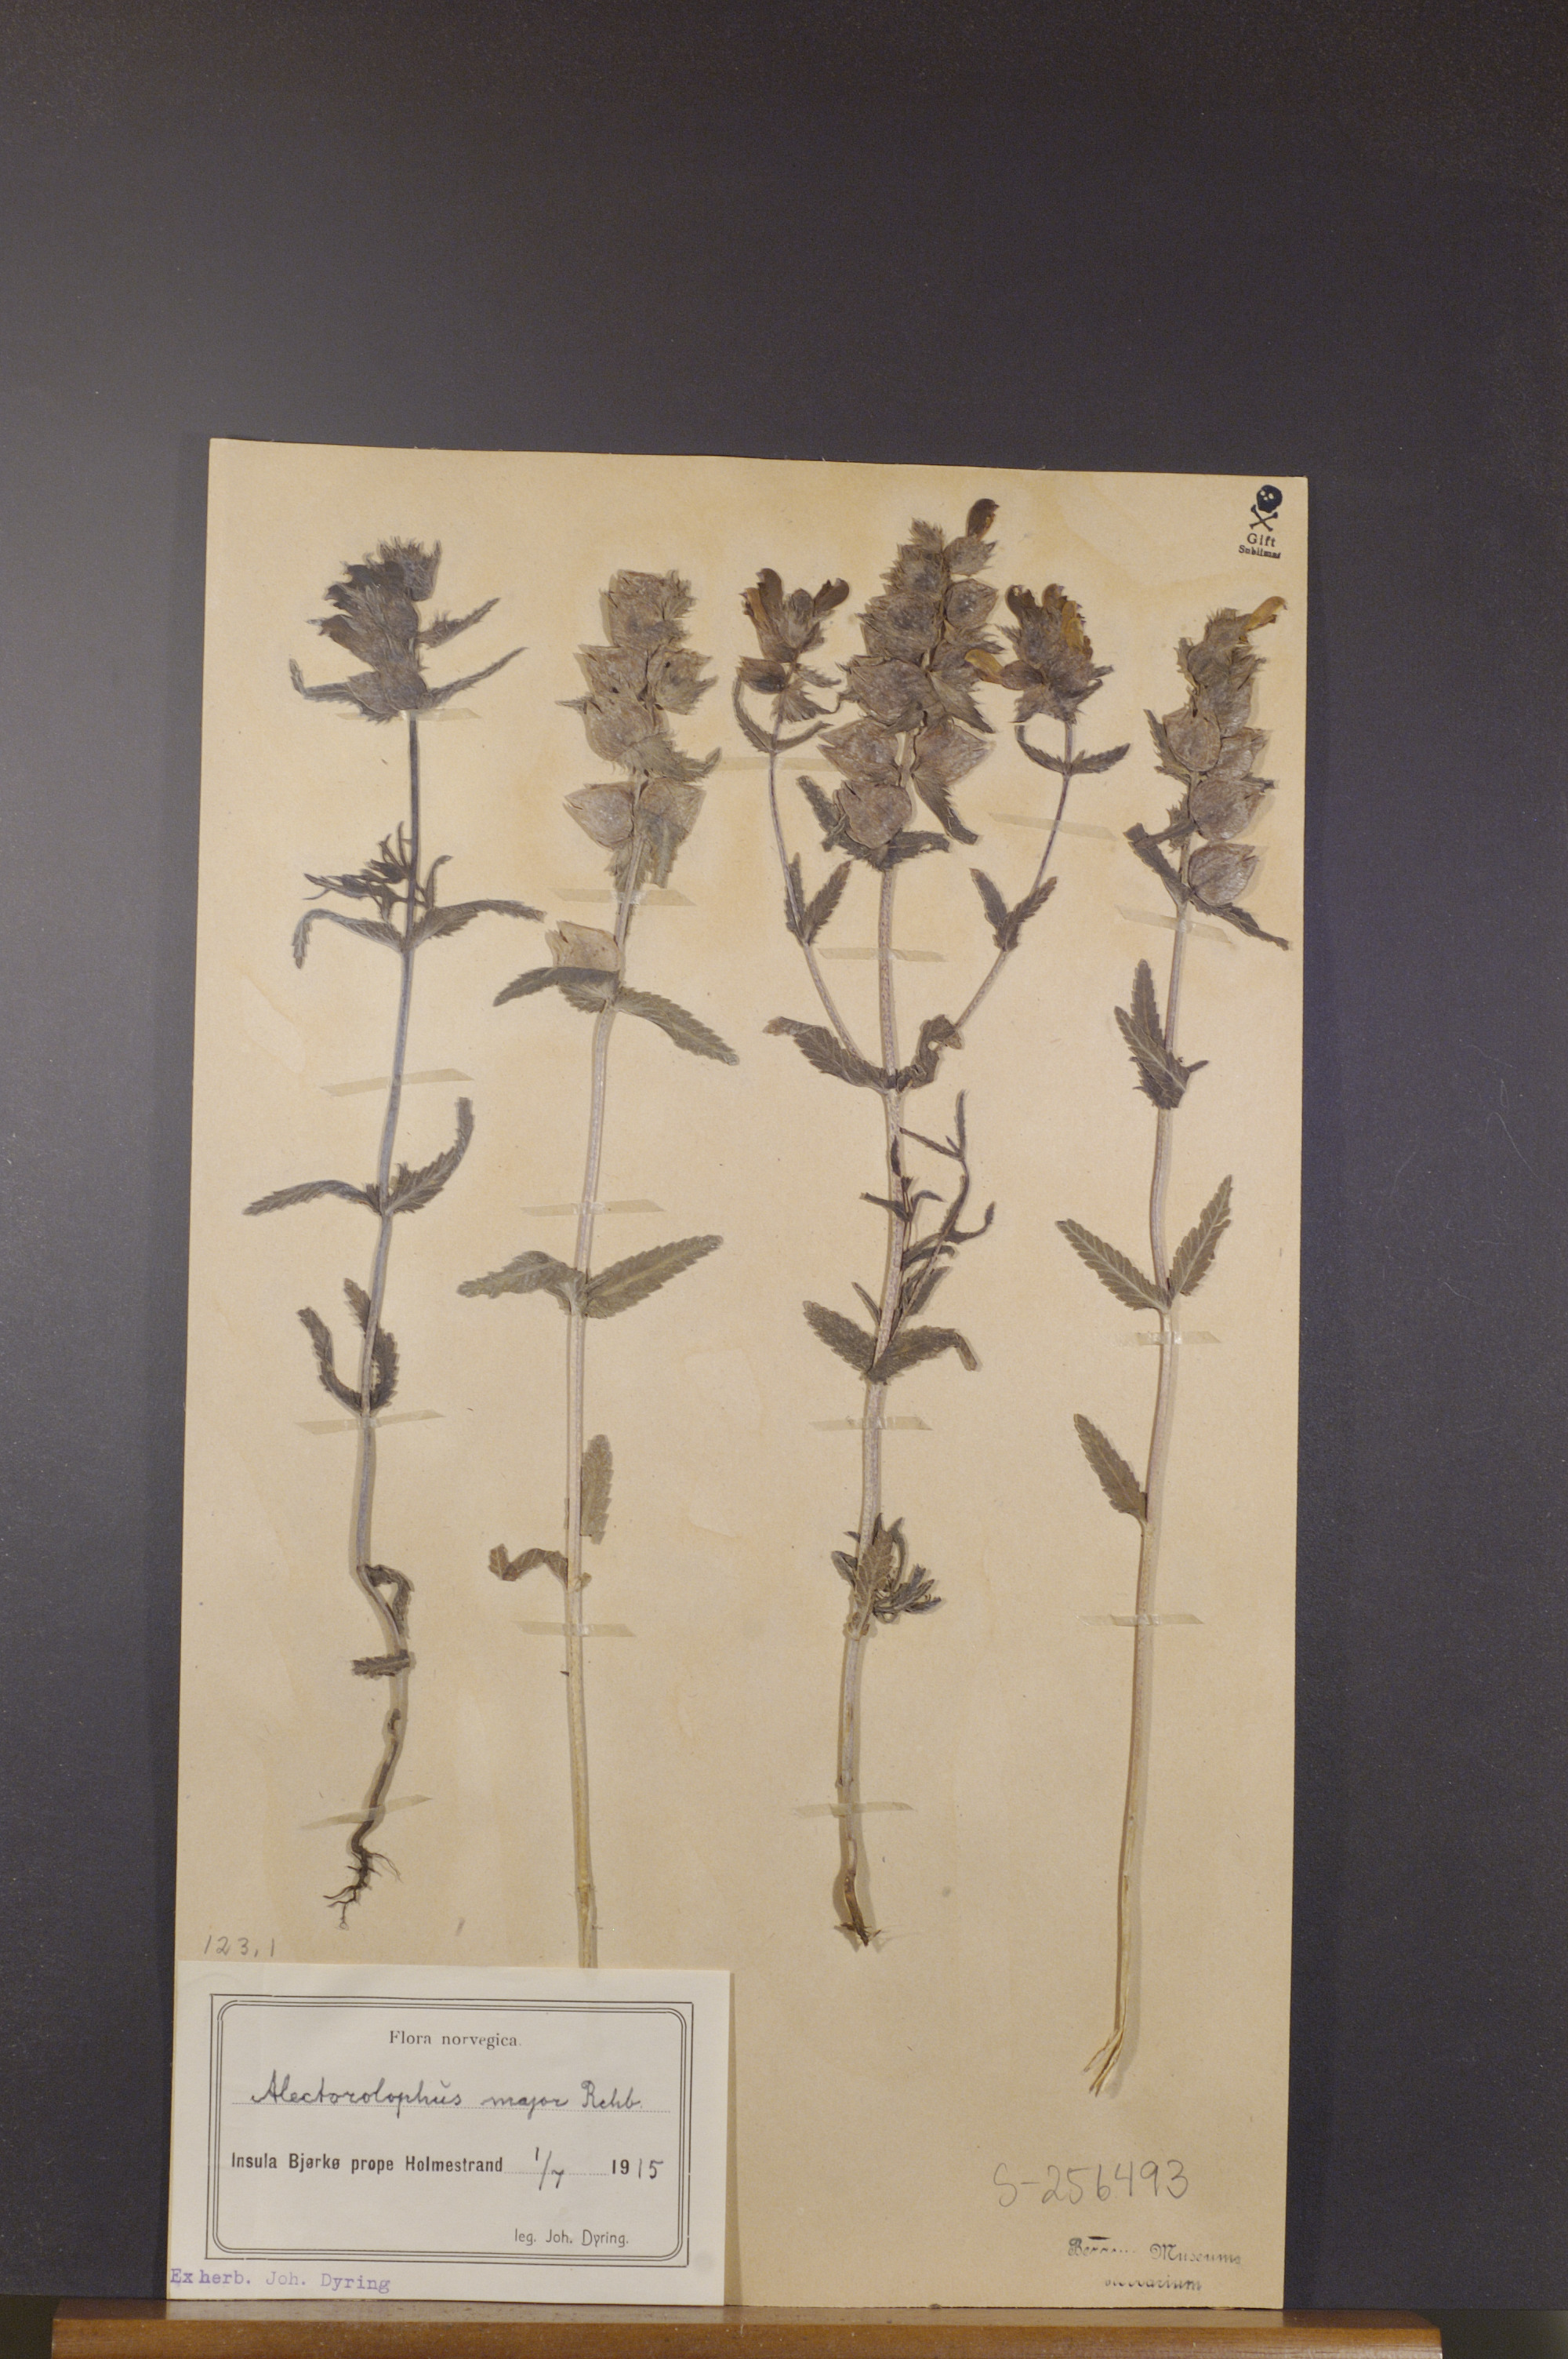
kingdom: Plantae
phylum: Tracheophyta
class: Magnoliopsida
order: Lamiales
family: Orobanchaceae
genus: Rhinanthus
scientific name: Rhinanthus serotinus
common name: Late-flowering yellow rattle
